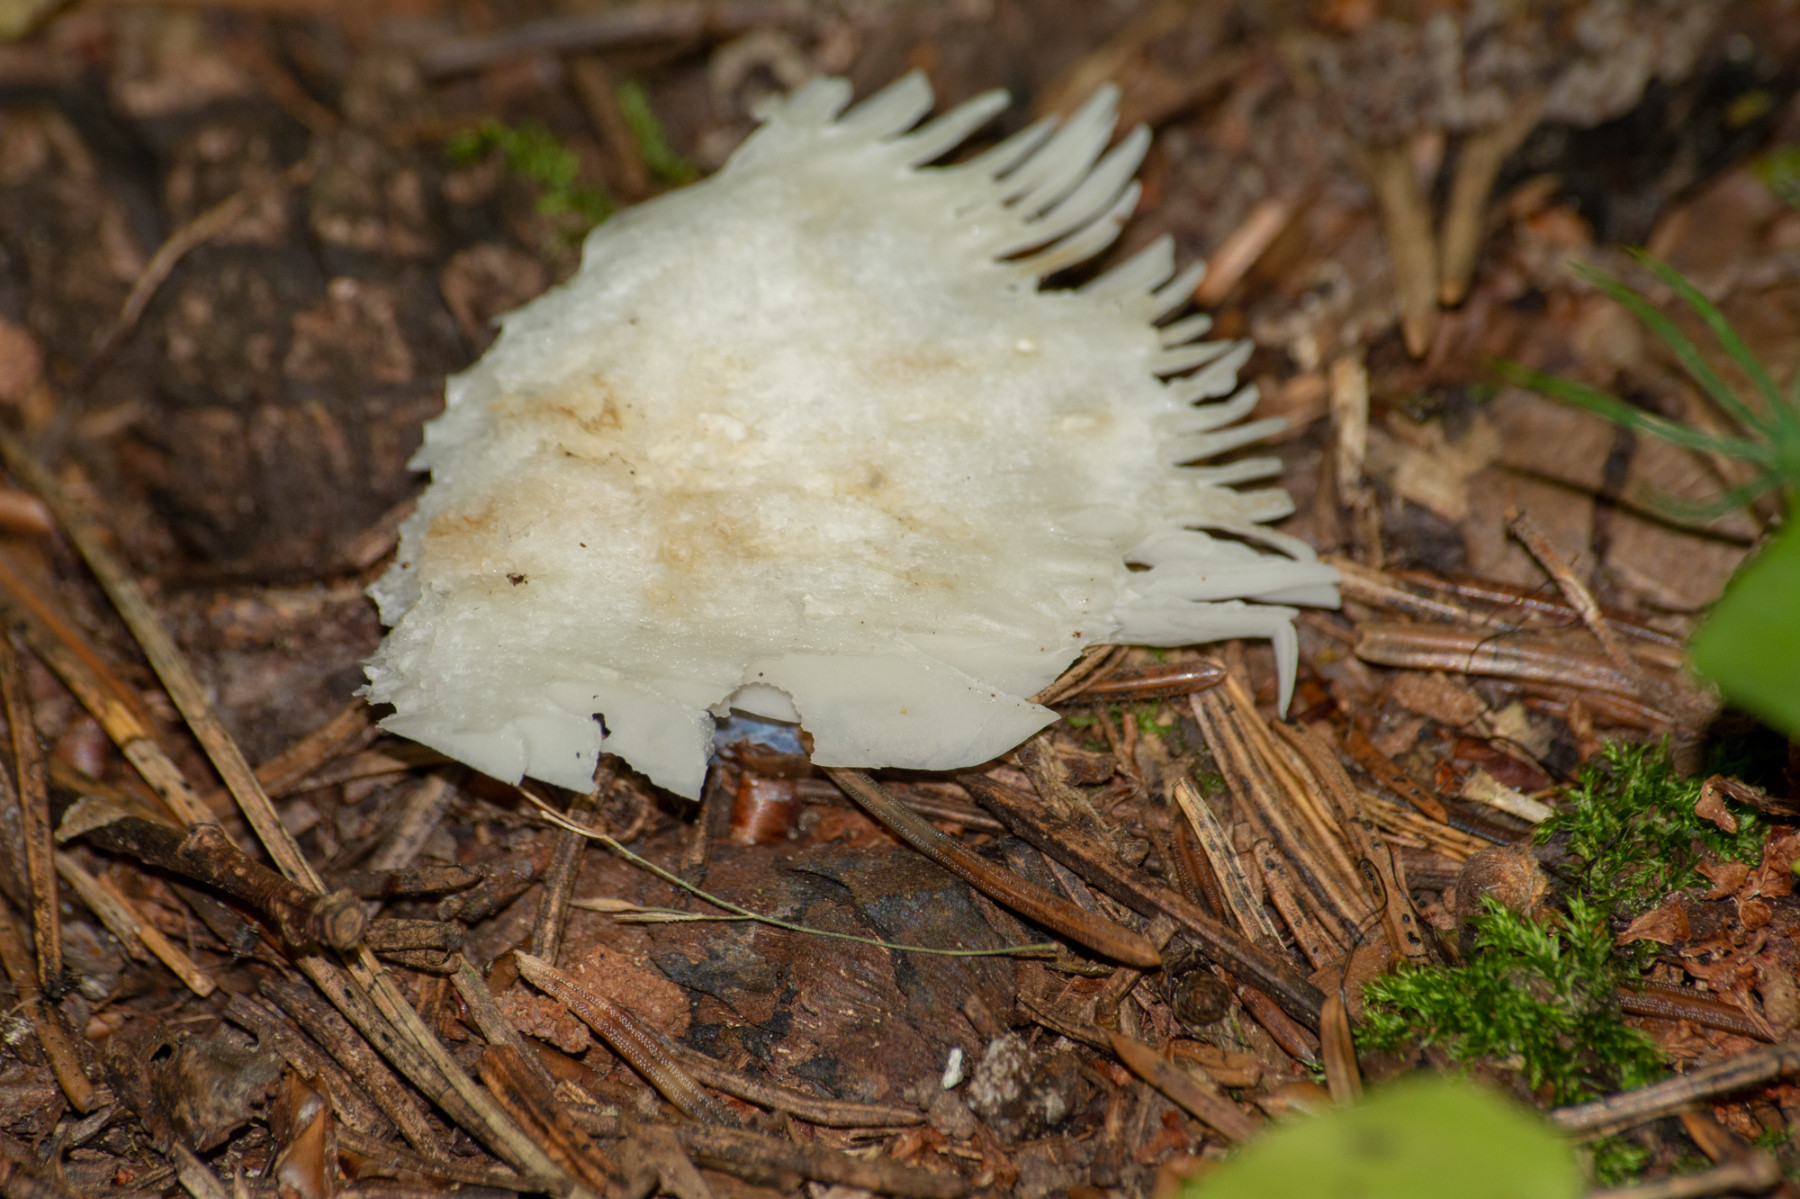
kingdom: Fungi
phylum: Basidiomycota
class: Agaricomycetes
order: Russulales
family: Russulaceae
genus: Russula
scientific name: Russula
